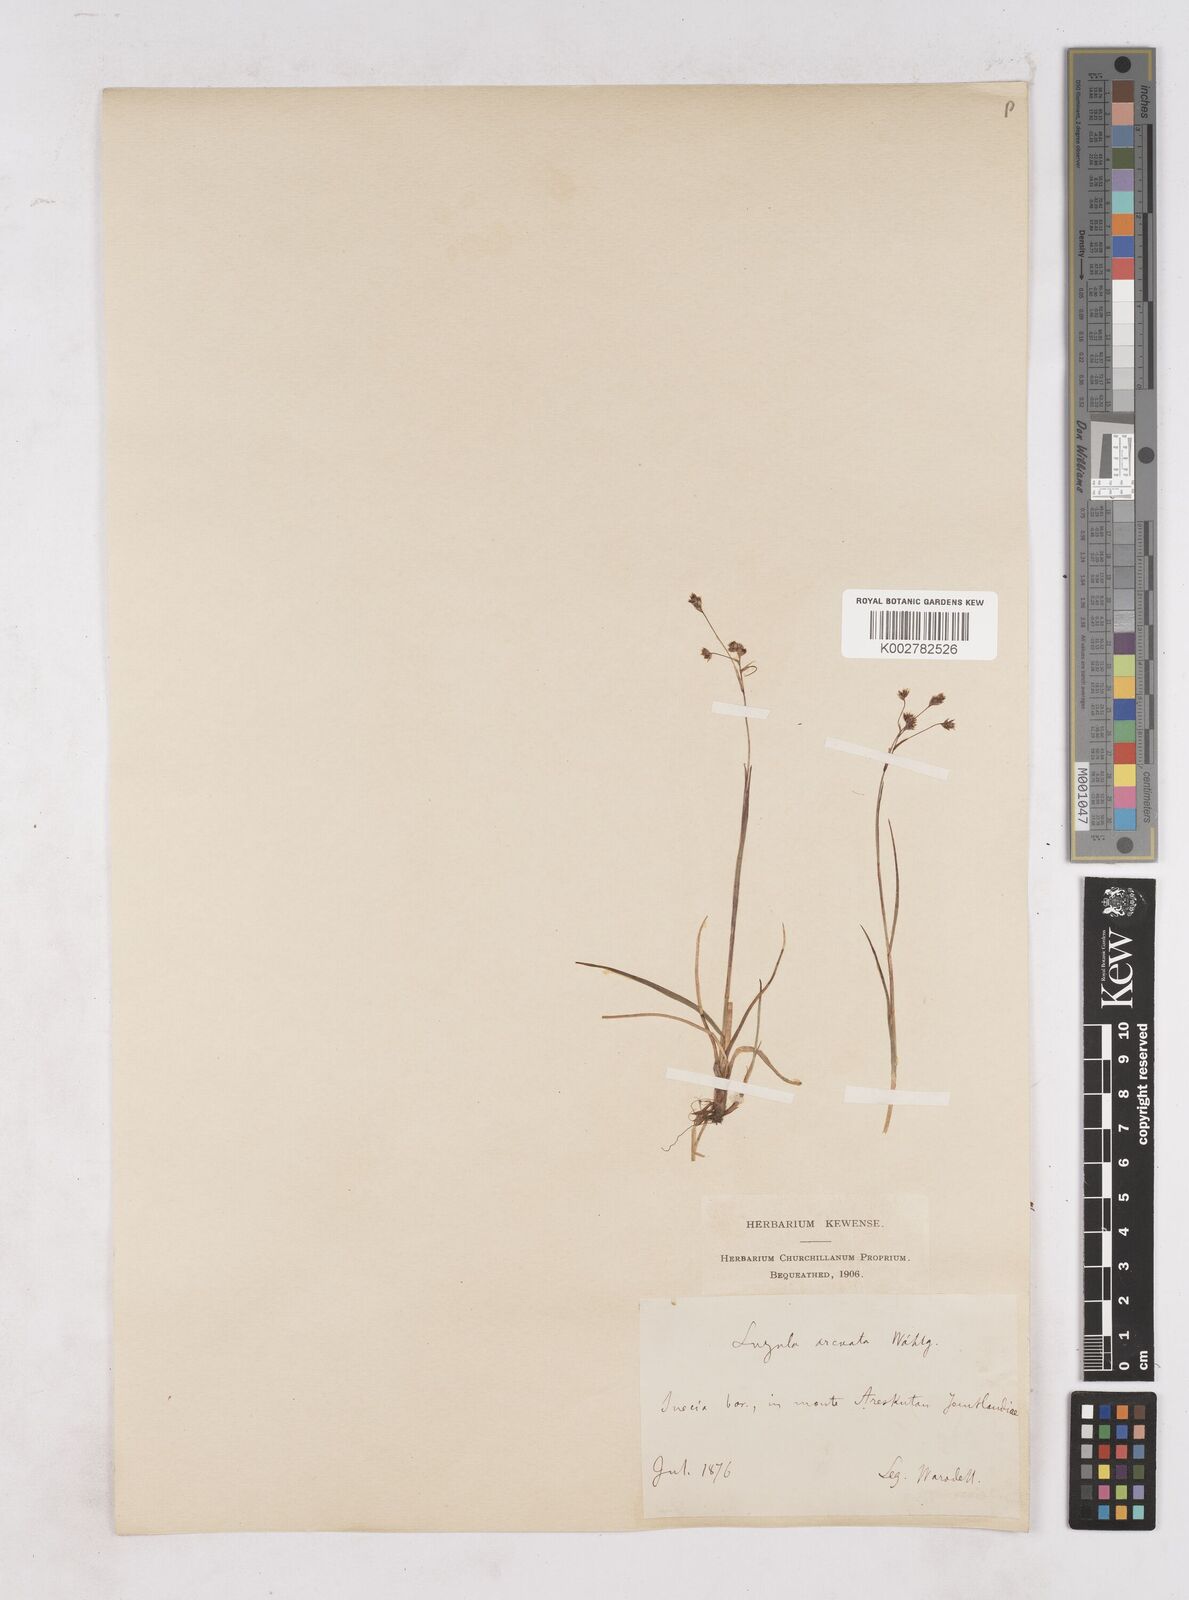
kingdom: Plantae
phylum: Tracheophyta
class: Liliopsida
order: Poales
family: Juncaceae
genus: Luzula
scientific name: Luzula arcuata
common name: Curved wood-rush
